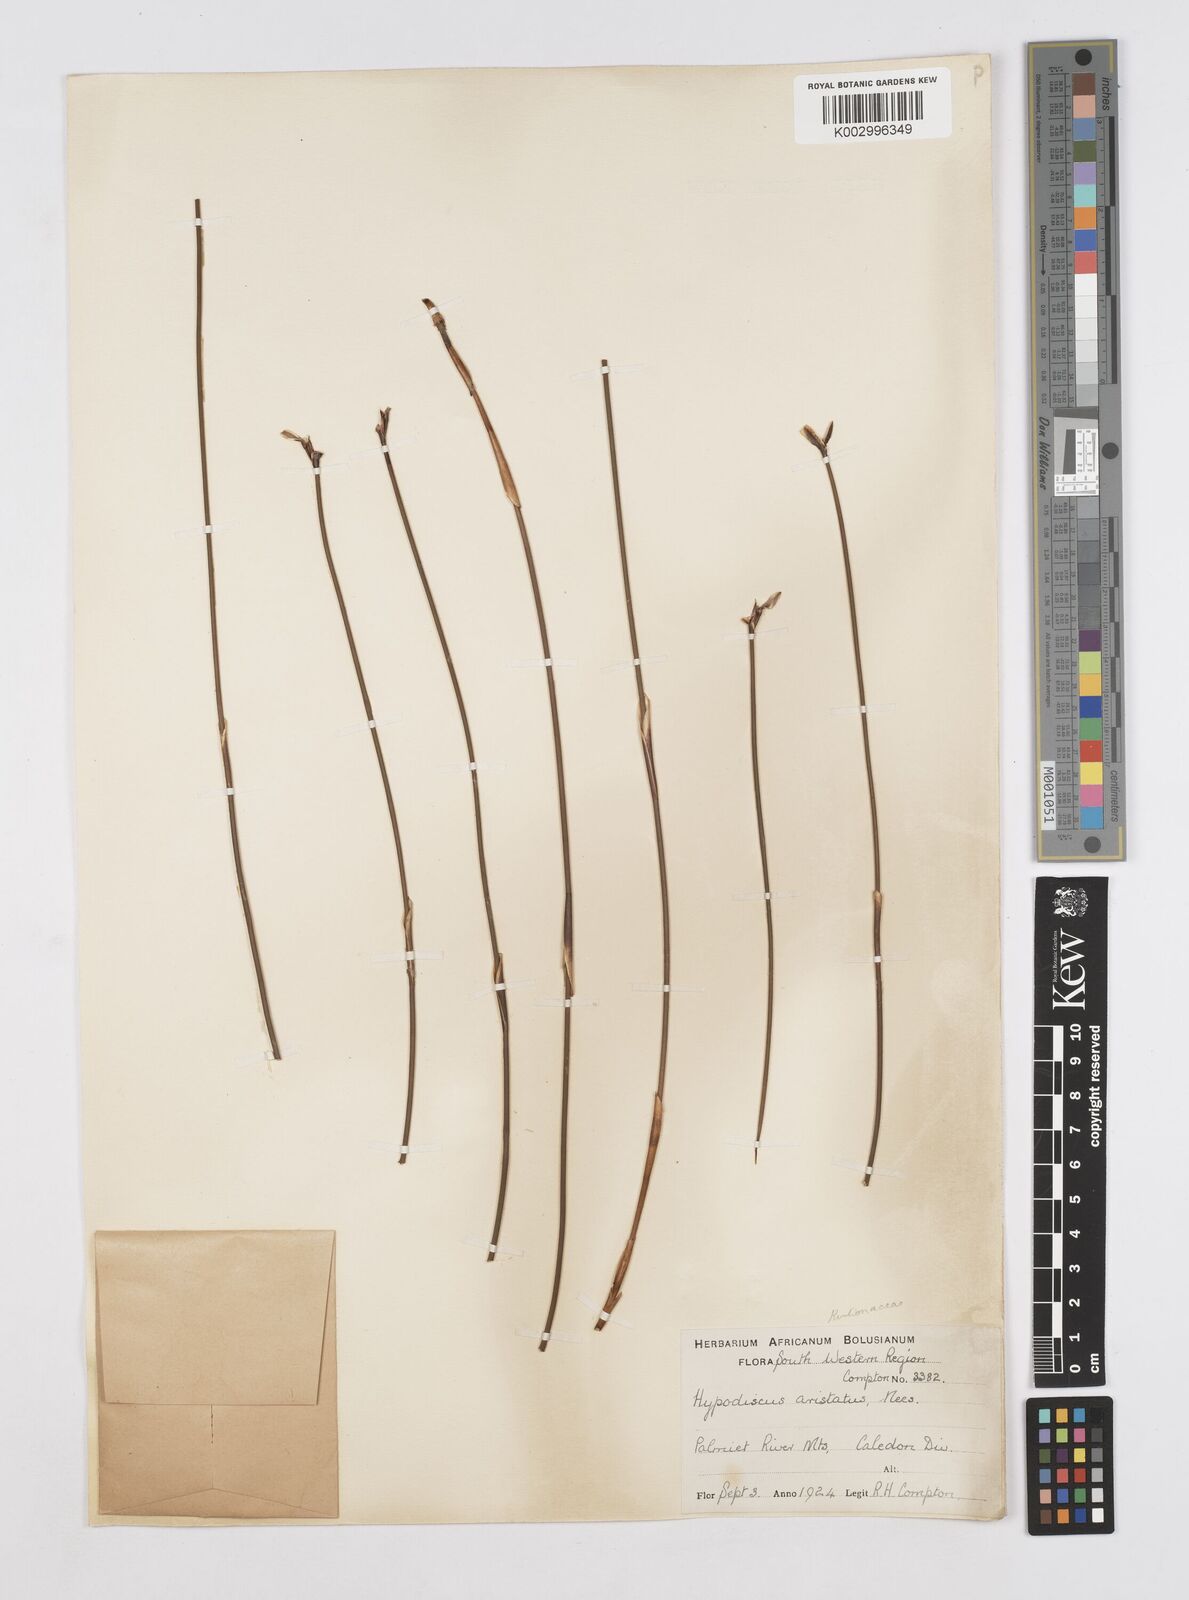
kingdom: Plantae
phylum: Tracheophyta
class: Liliopsida
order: Poales
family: Restionaceae
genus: Hypodiscus
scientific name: Hypodiscus aristatus
